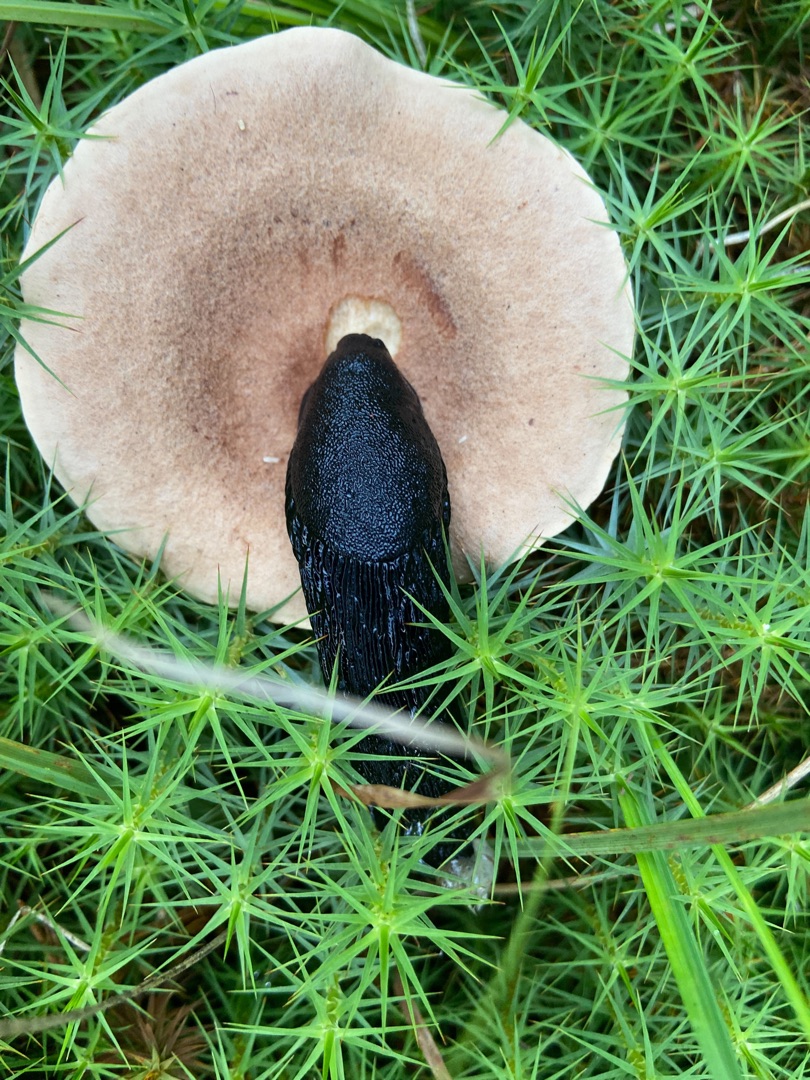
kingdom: Fungi
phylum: Basidiomycota
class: Agaricomycetes
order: Russulales
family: Russulaceae
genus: Lactarius
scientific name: Lactarius helvus
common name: Mose-mælkehat
